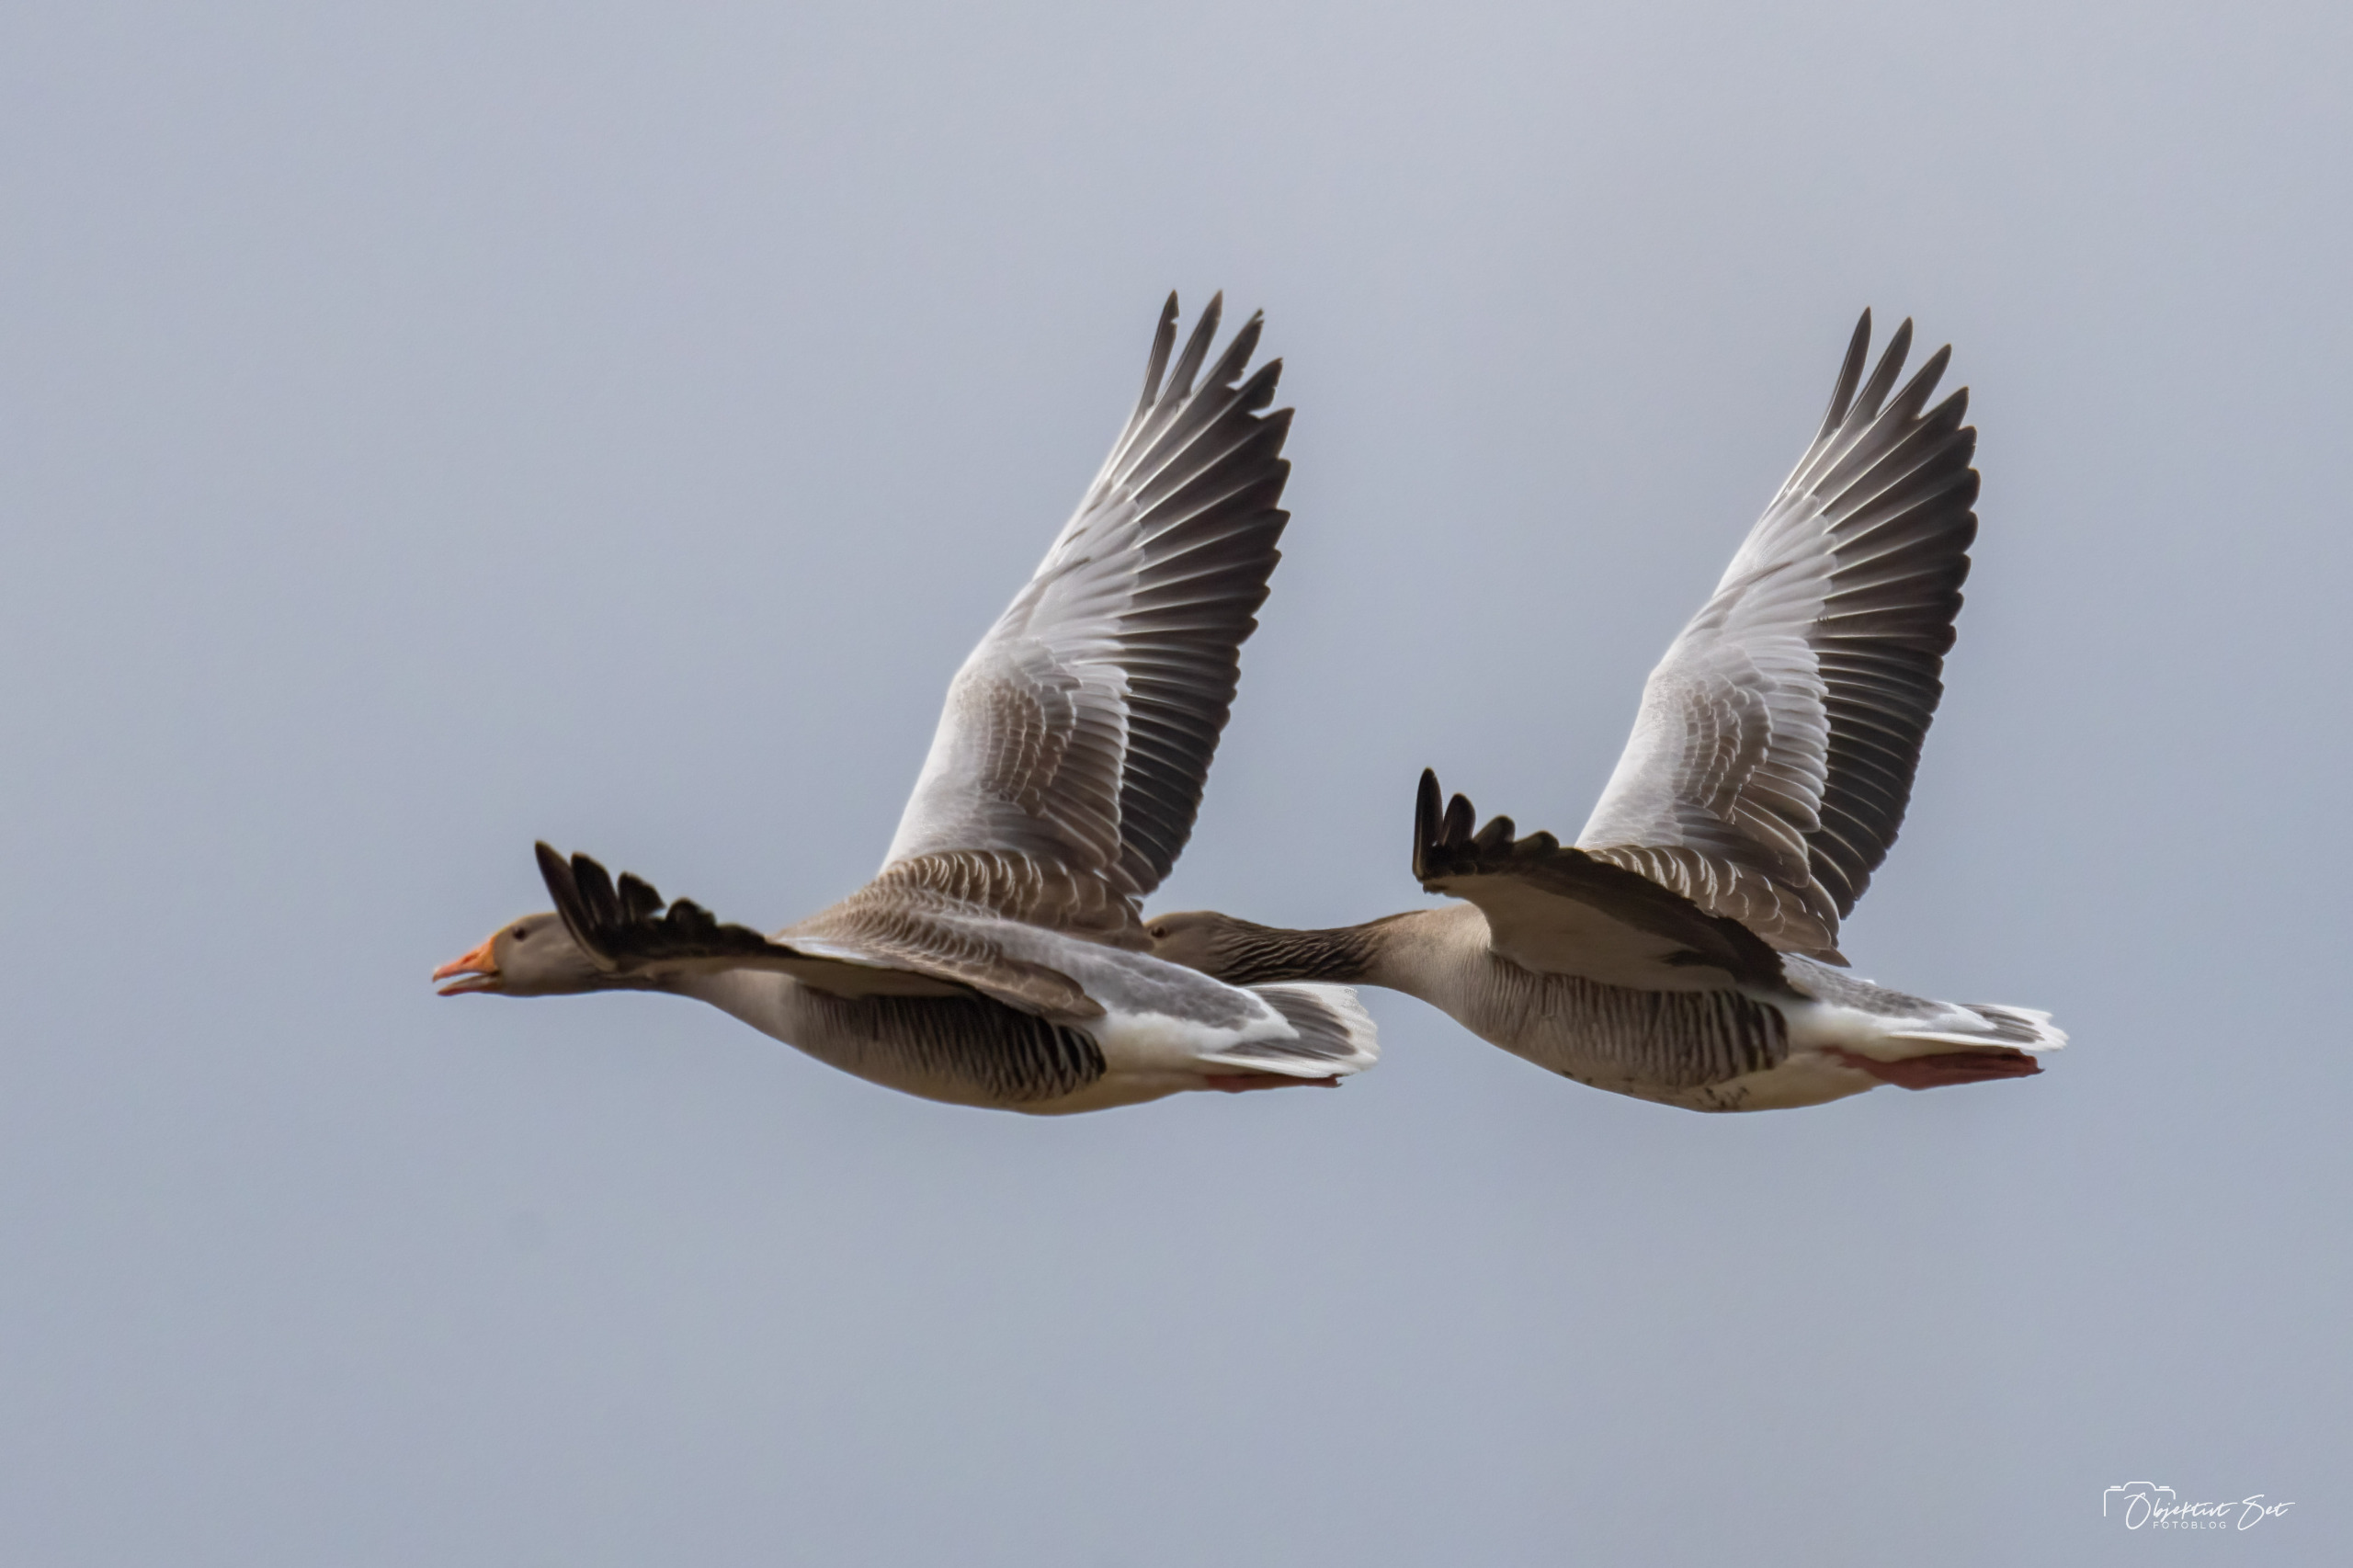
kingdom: Animalia
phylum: Chordata
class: Aves
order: Anseriformes
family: Anatidae
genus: Anser
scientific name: Anser anser
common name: Grågås
